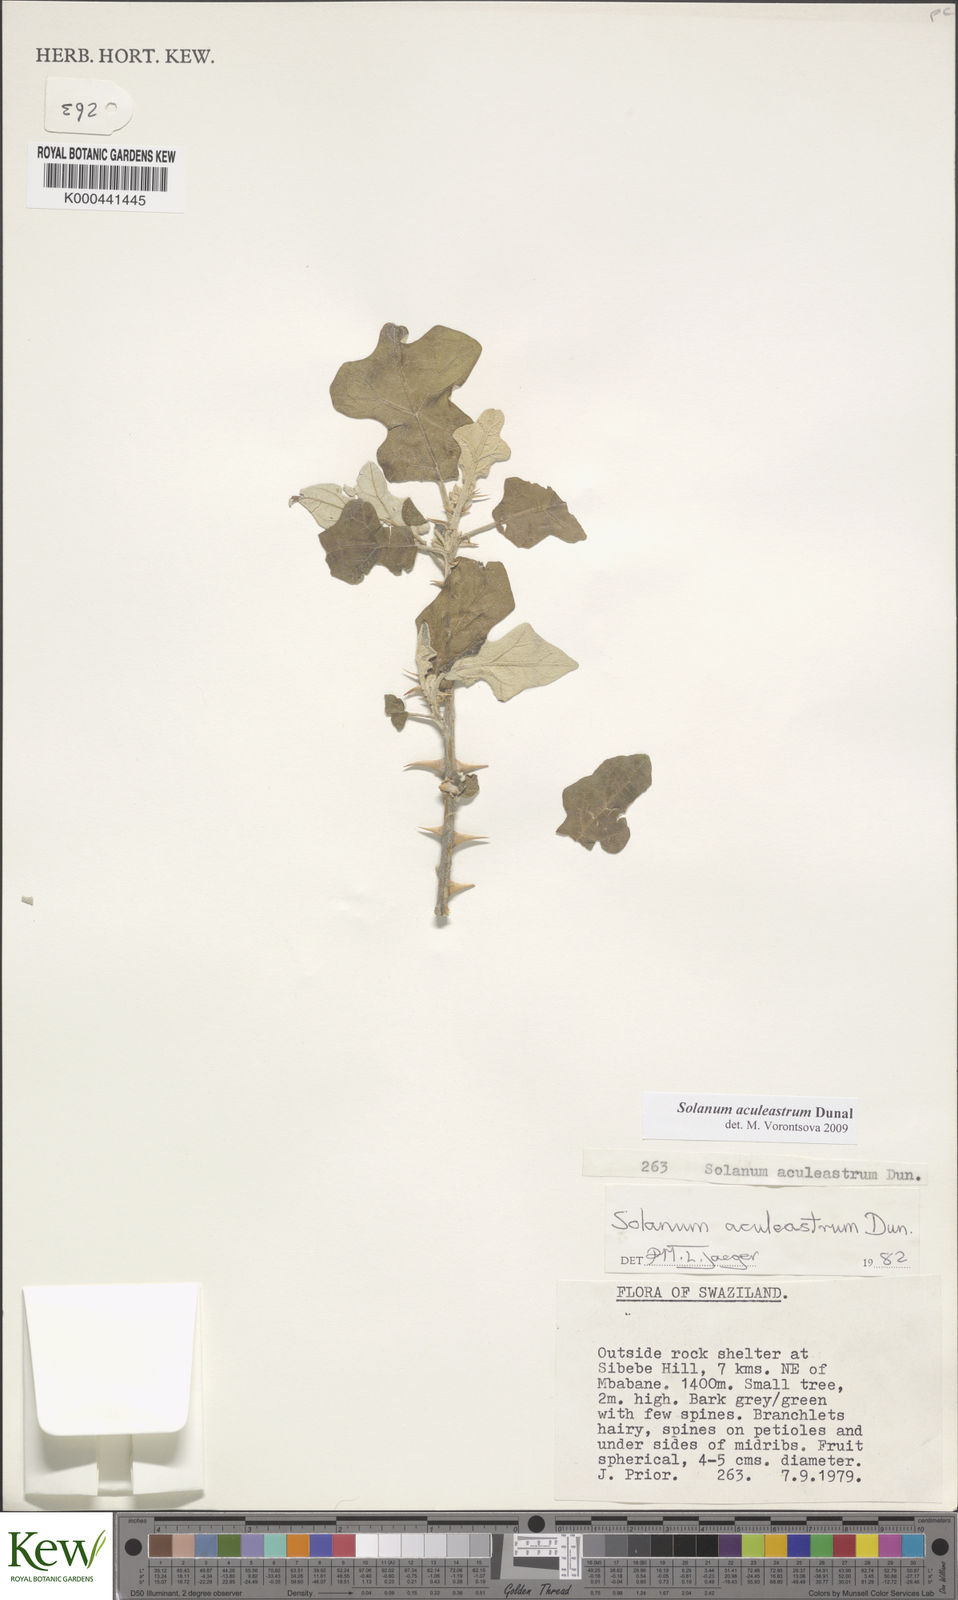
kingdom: Plantae
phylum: Tracheophyta
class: Magnoliopsida
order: Solanales
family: Solanaceae
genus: Solanum
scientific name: Solanum aculeastrum
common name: Goat bitter-apple
